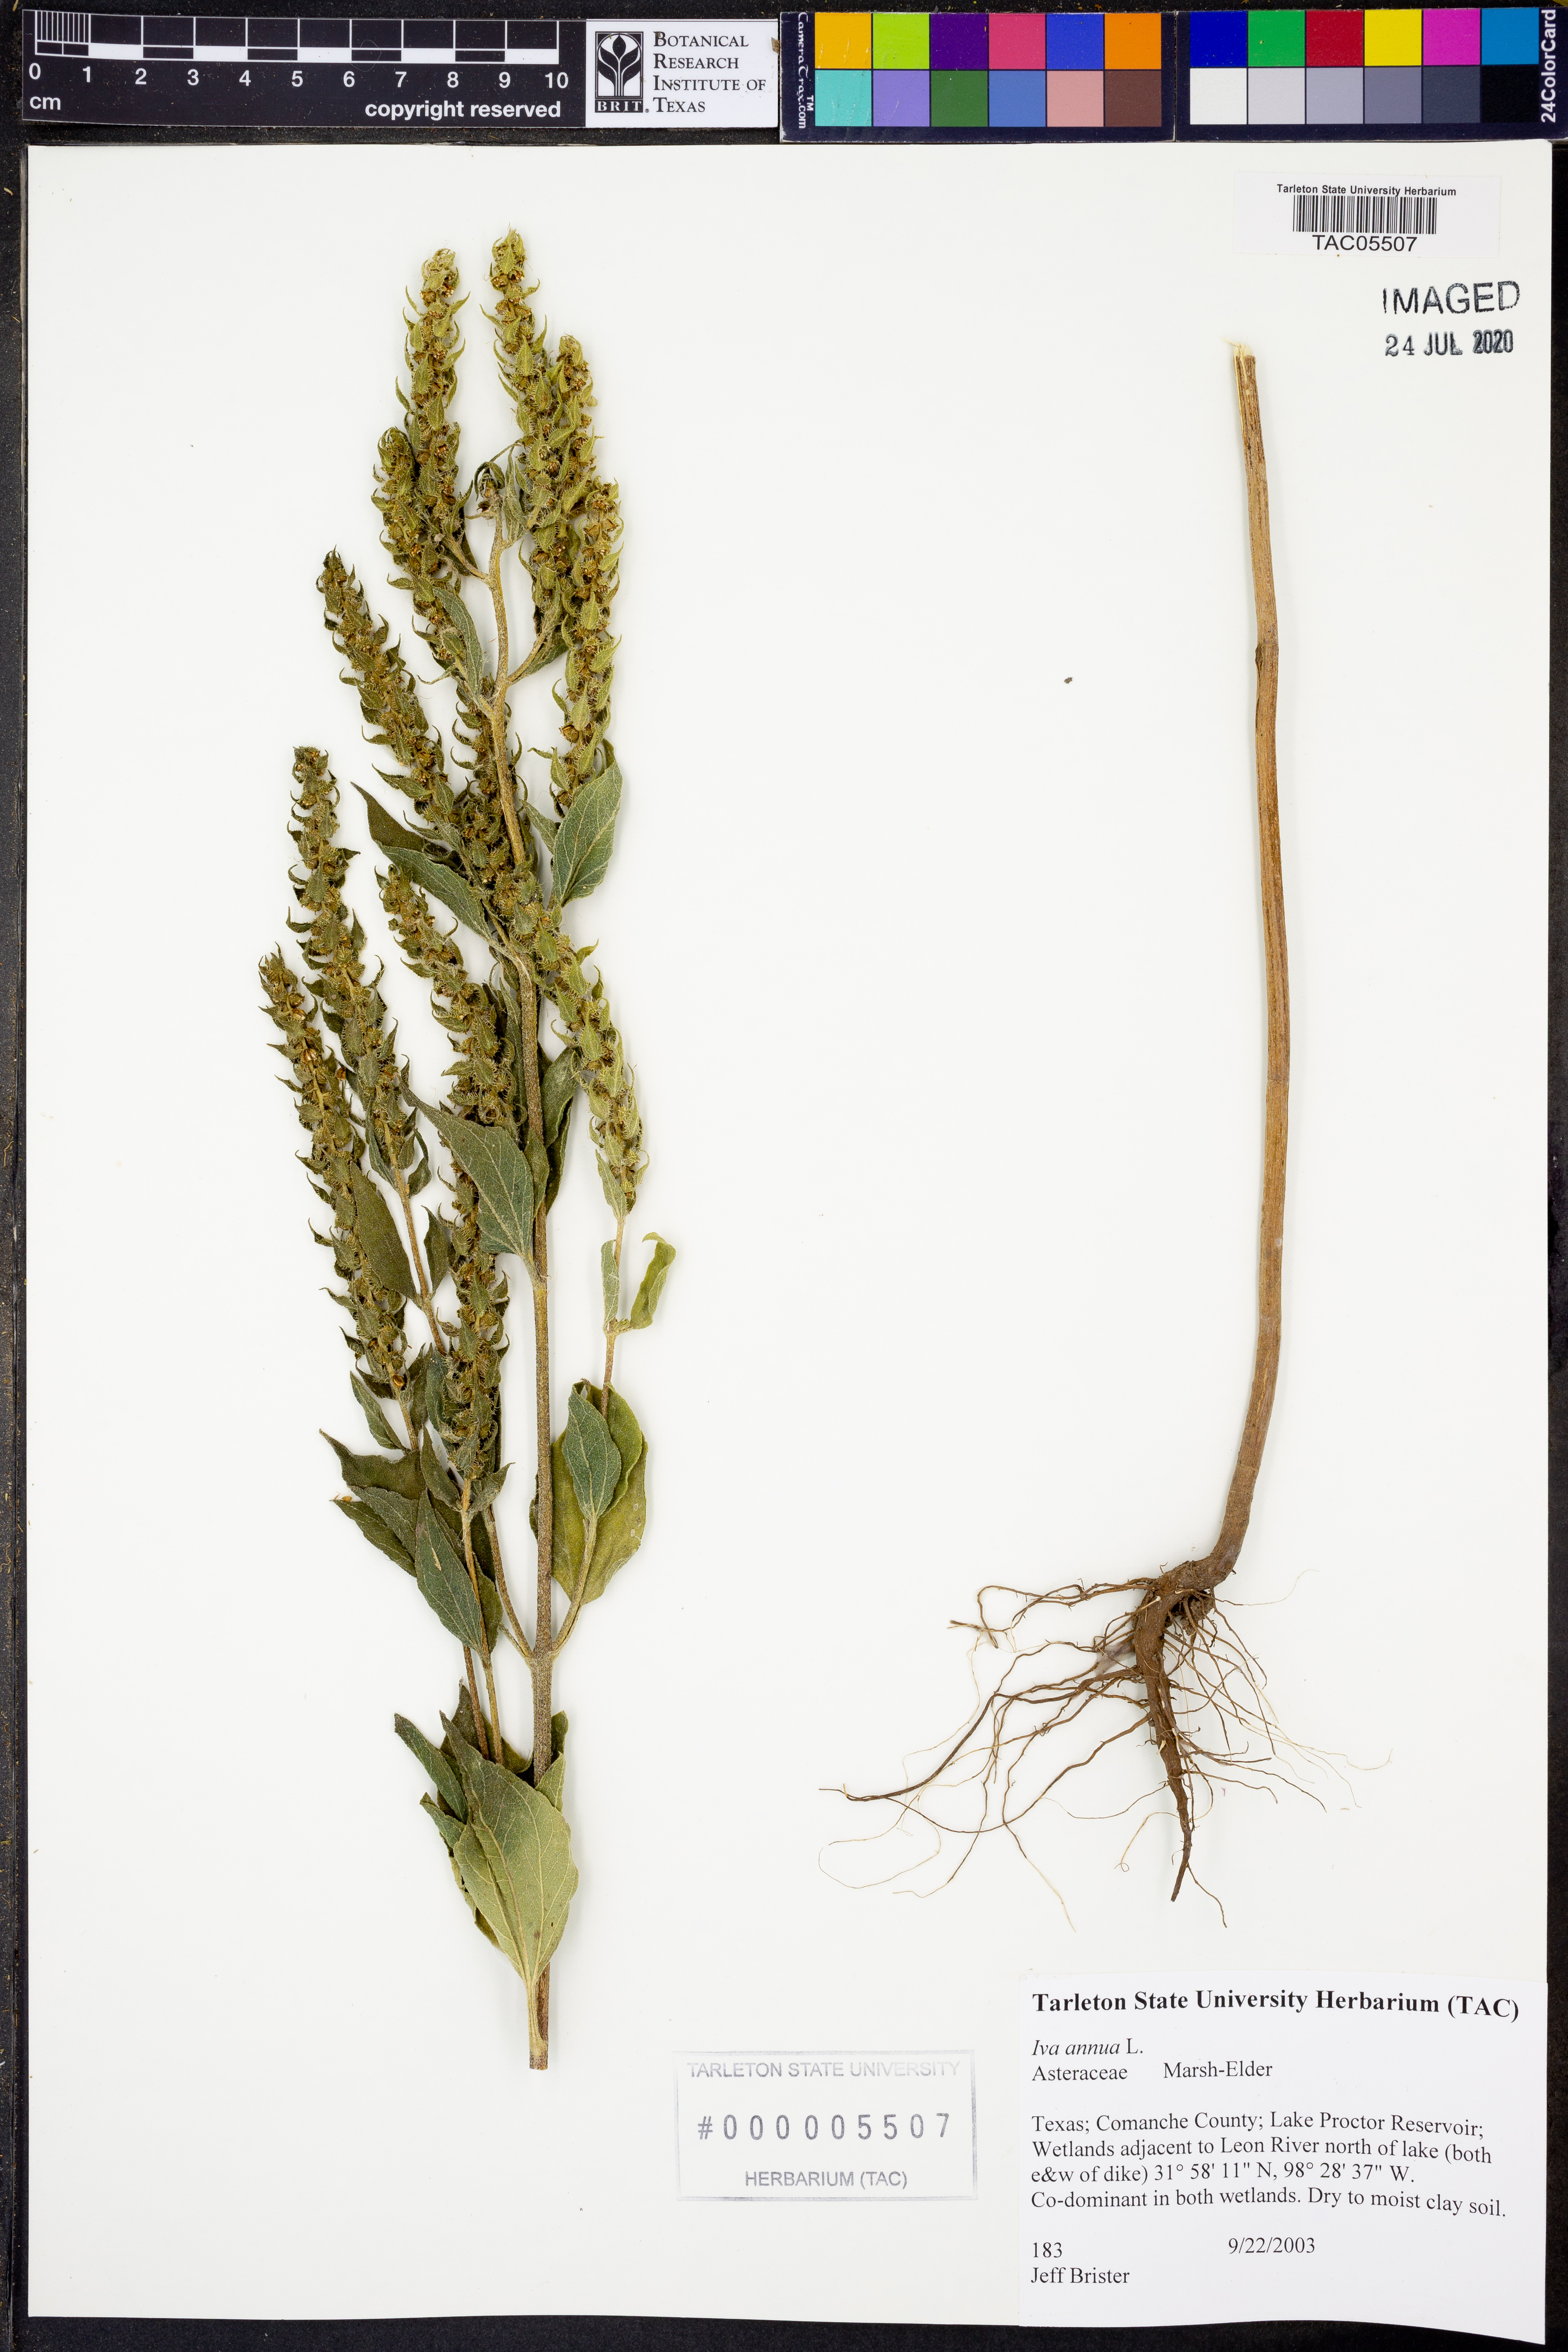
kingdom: Plantae
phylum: Tracheophyta
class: Magnoliopsida
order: Asterales
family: Asteraceae
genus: Iva
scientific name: Iva annua
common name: Marsh-elder
